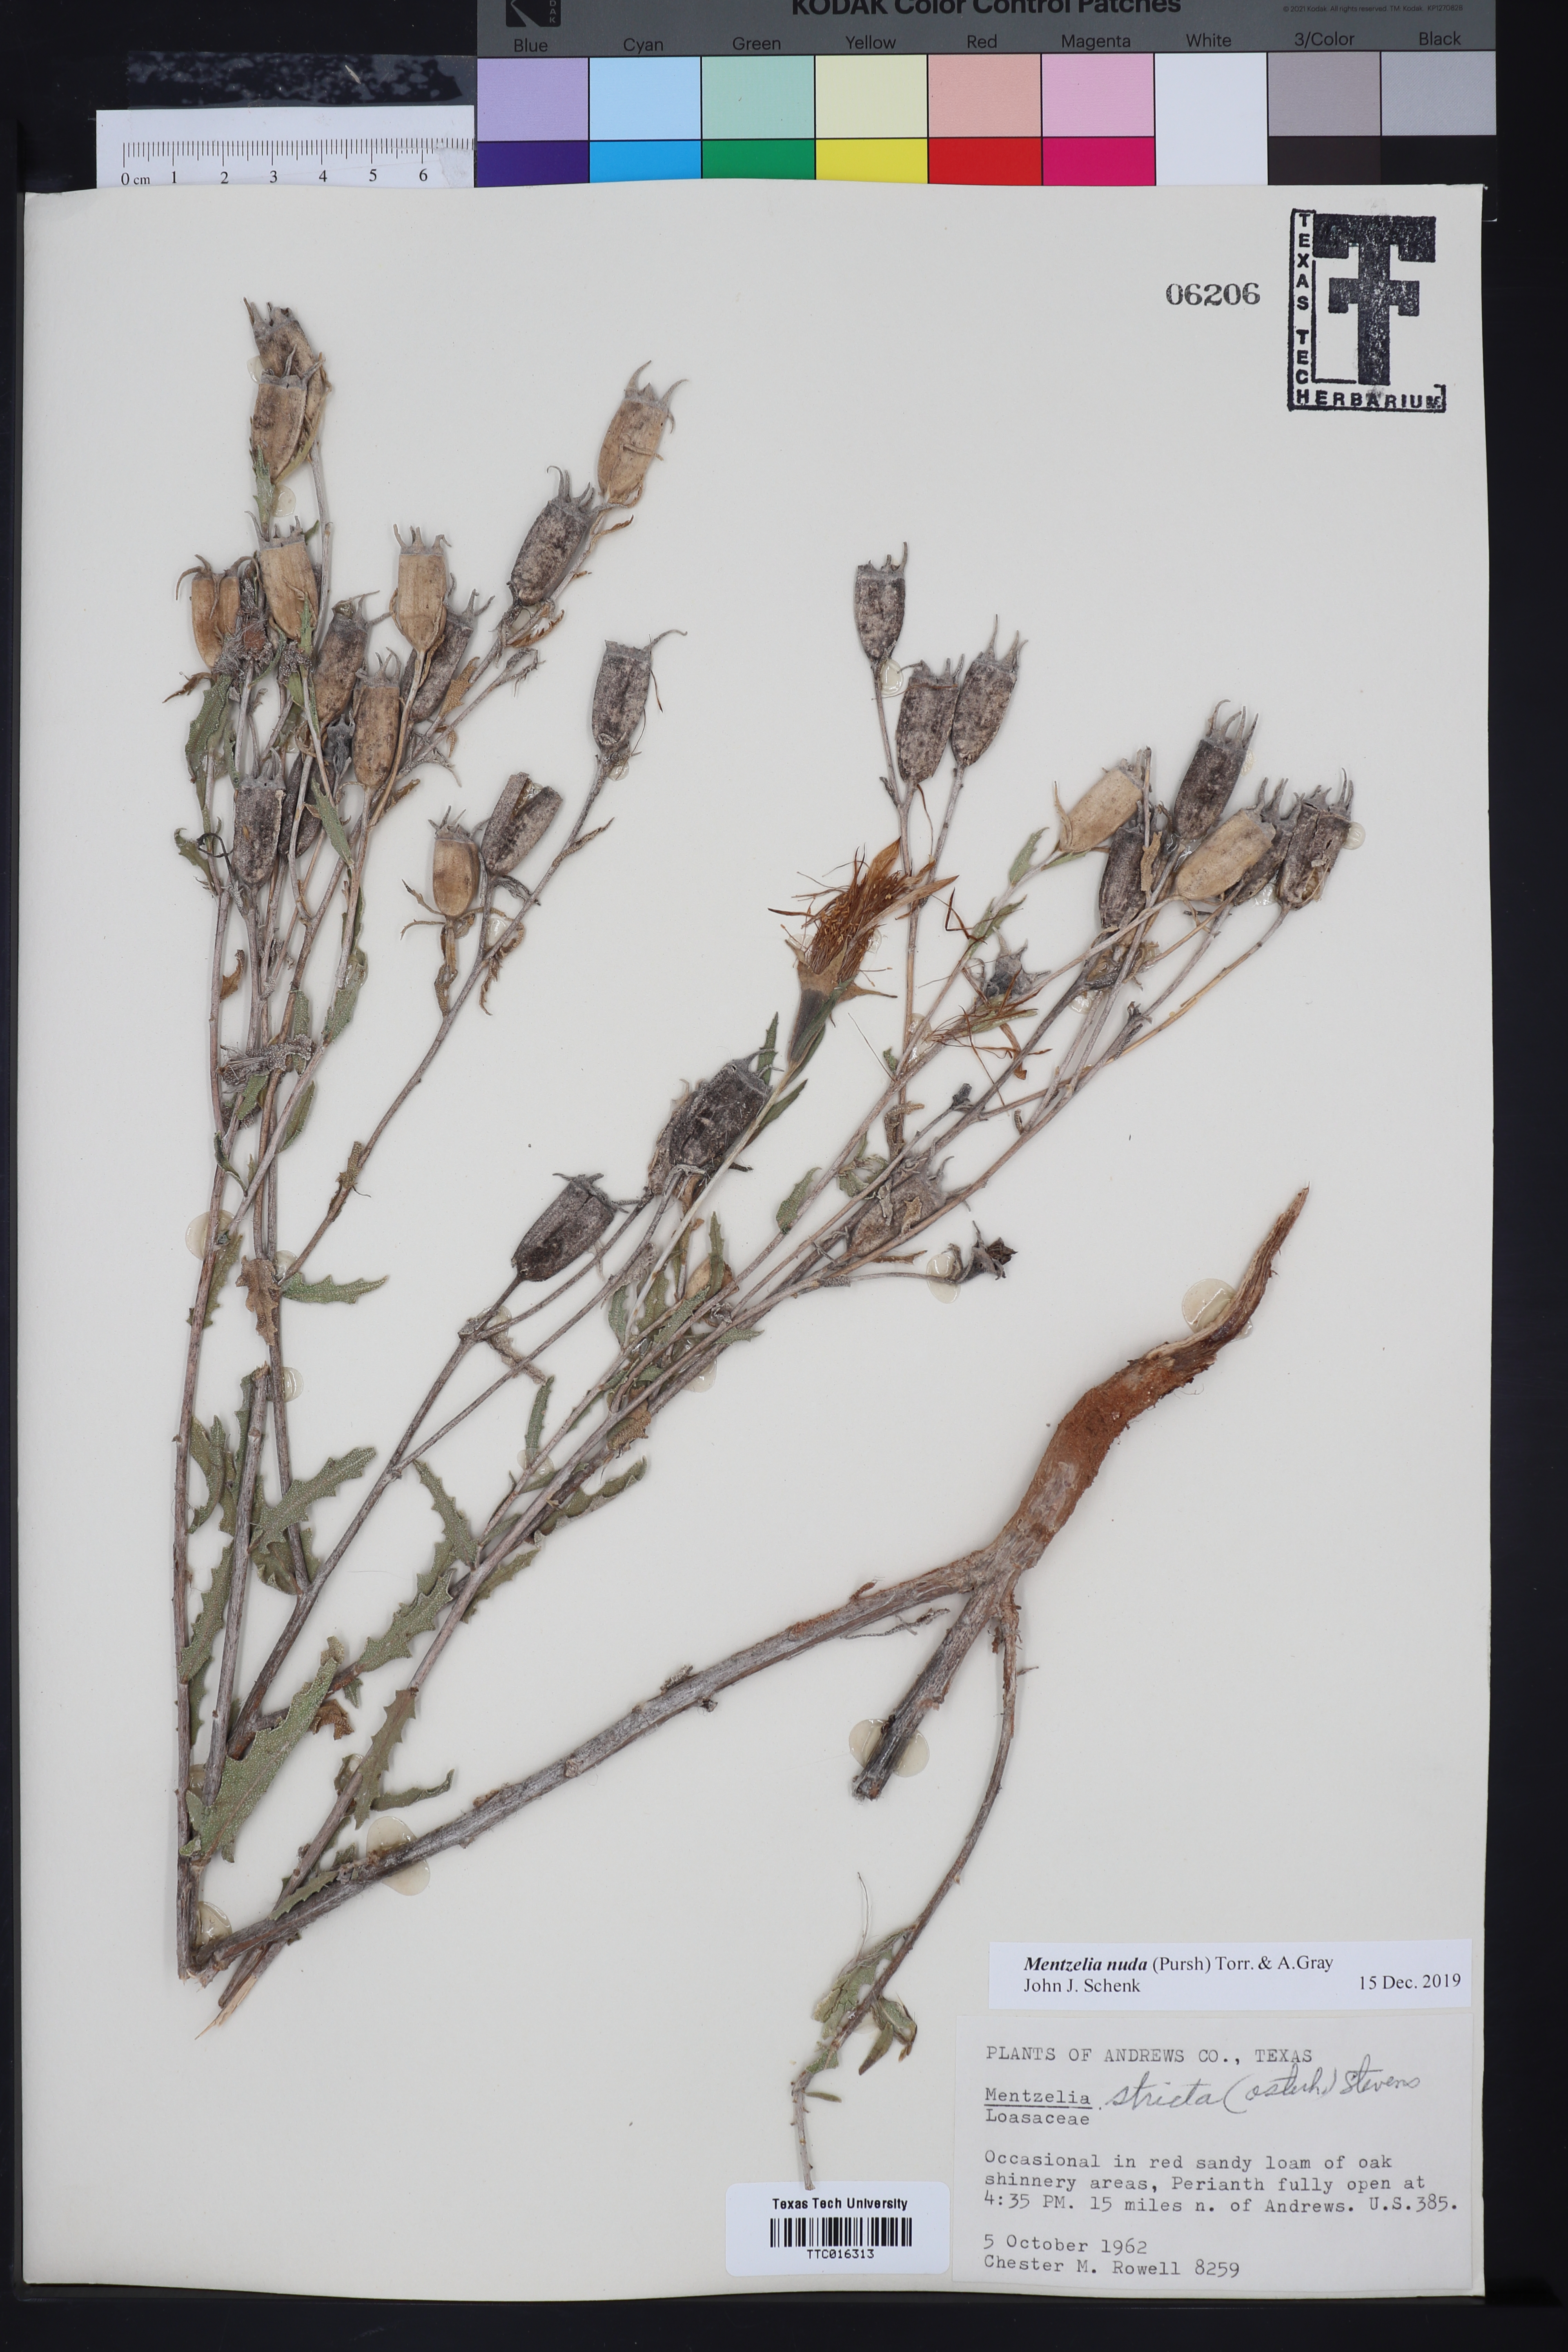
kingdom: Plantae
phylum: Tracheophyta
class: Magnoliopsida
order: Cornales
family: Loasaceae
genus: Mentzelia
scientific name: Mentzelia nuda
